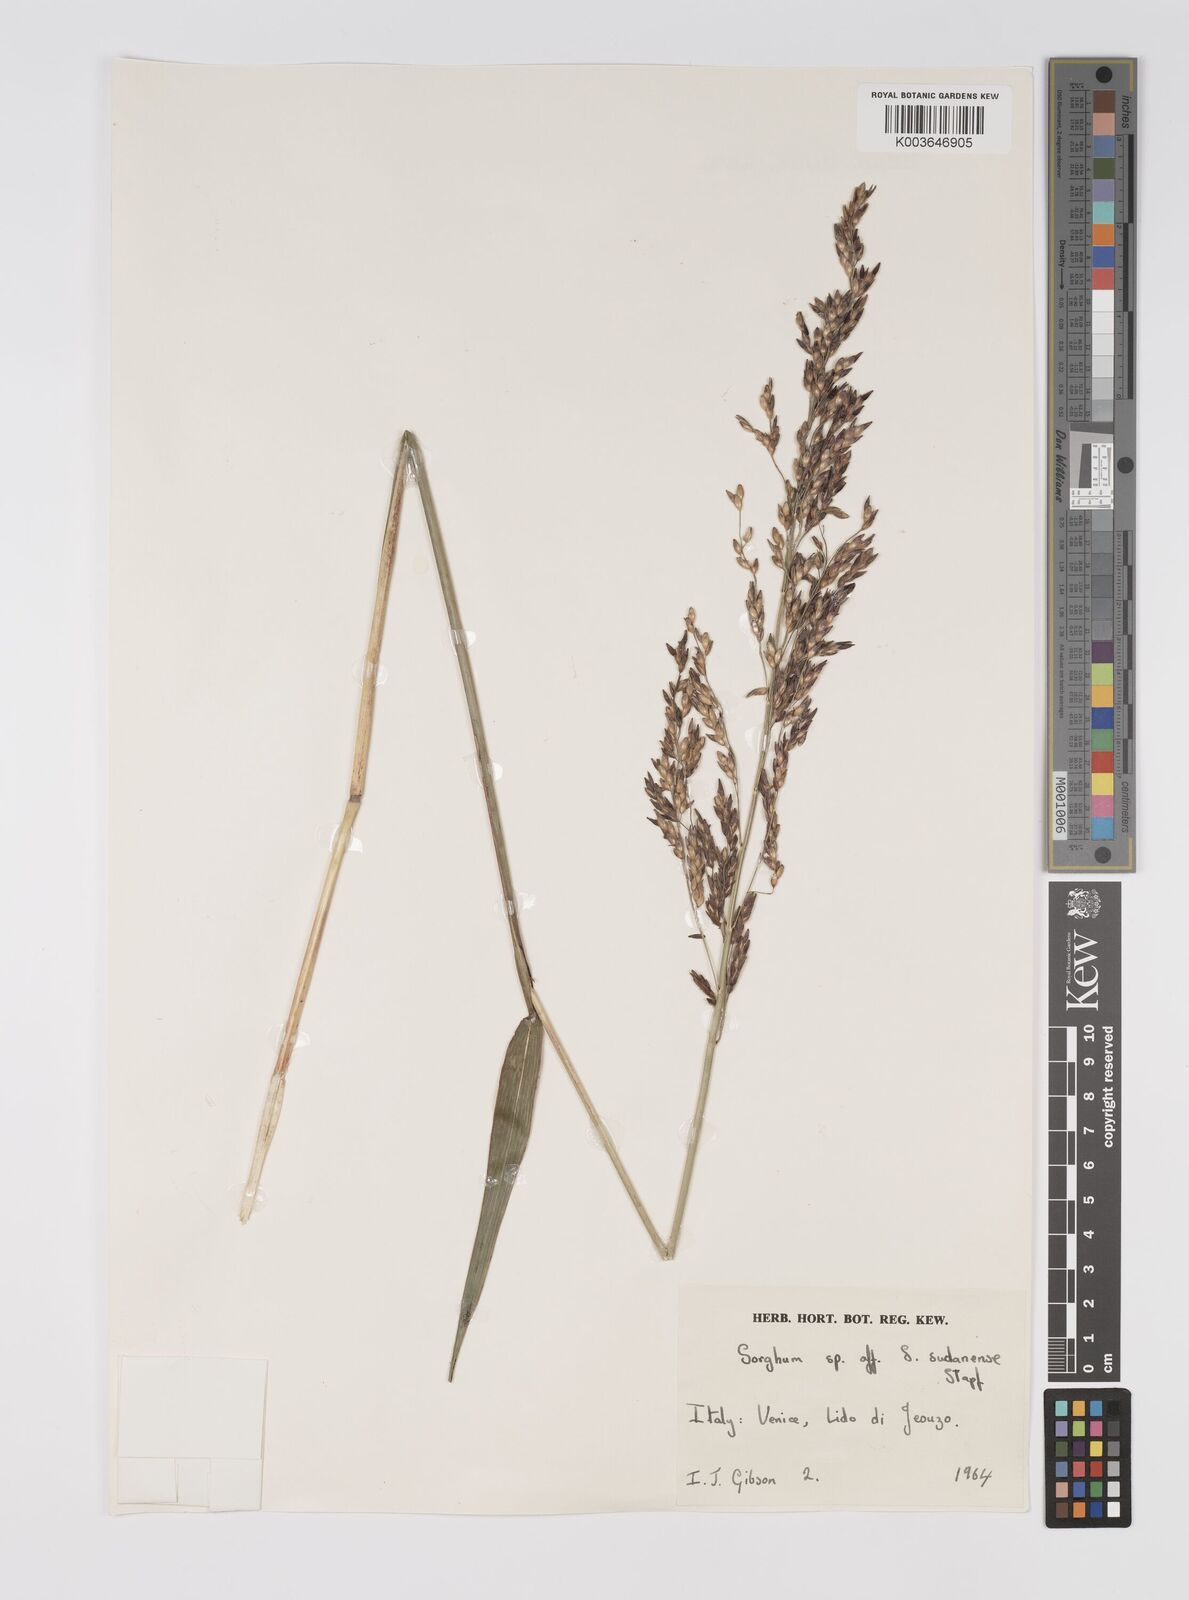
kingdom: Plantae
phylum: Tracheophyta
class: Liliopsida
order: Poales
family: Poaceae
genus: Sorghum
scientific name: Sorghum
